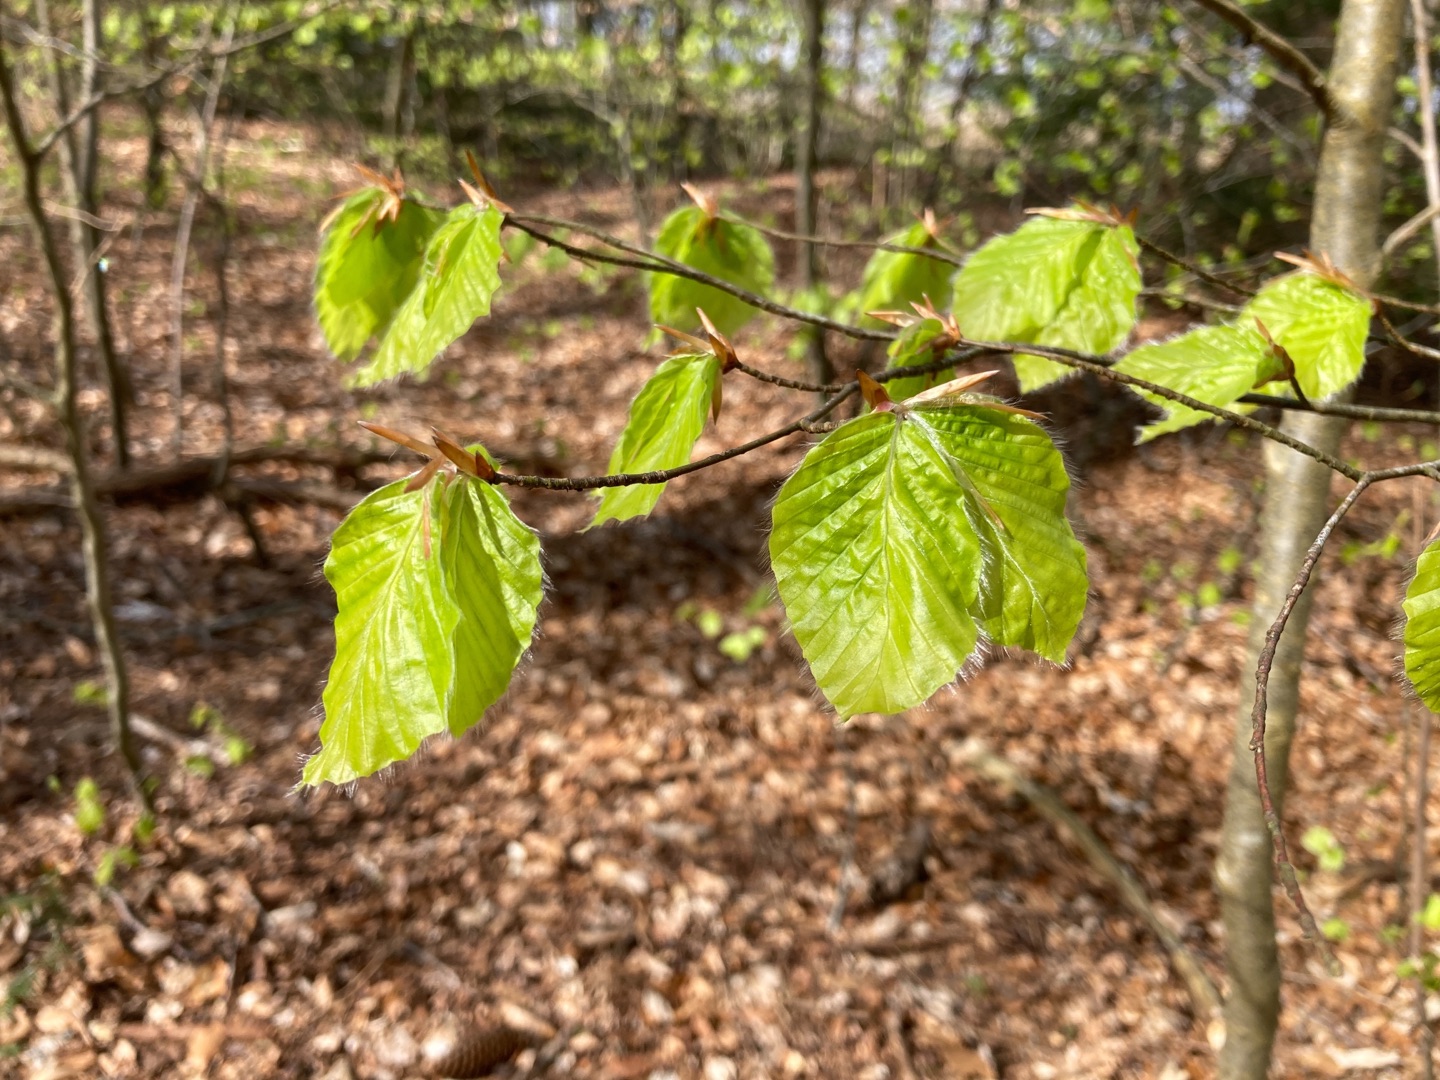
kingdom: Plantae
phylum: Tracheophyta
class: Magnoliopsida
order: Fagales
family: Fagaceae
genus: Fagus
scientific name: Fagus sylvatica
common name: Bøg
